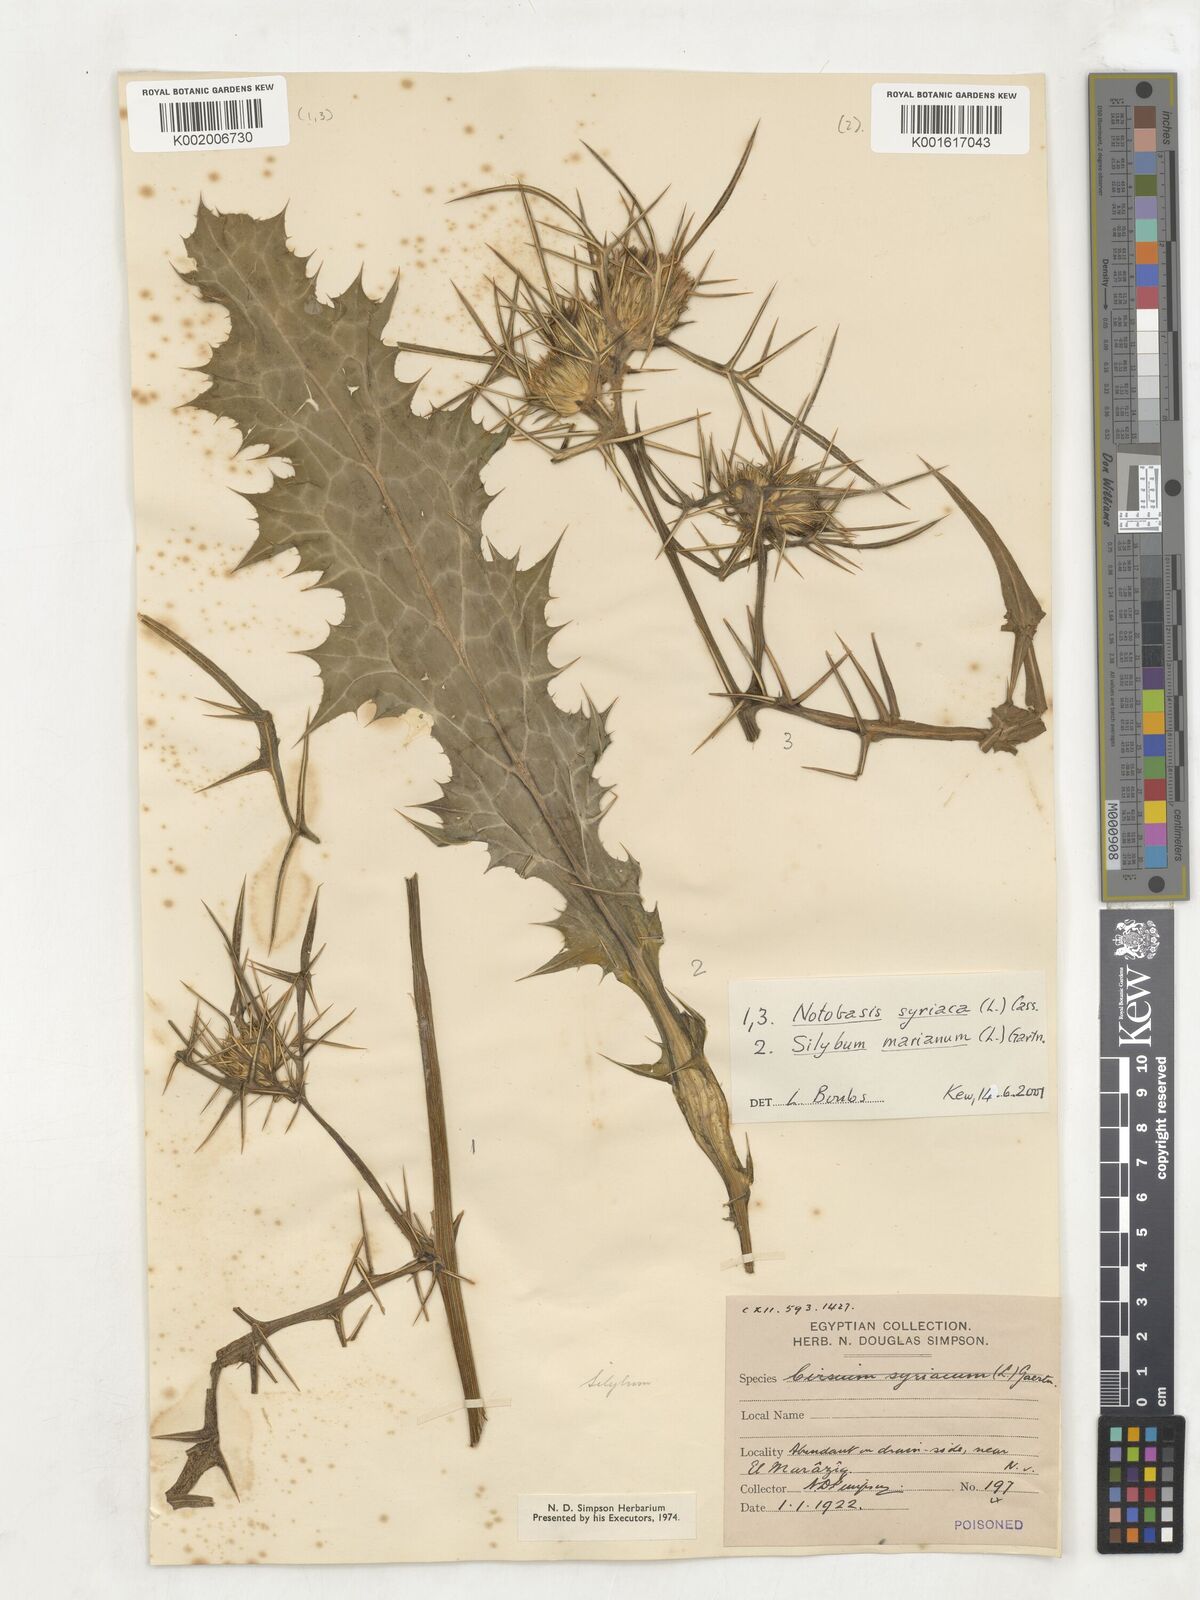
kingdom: Plantae
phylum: Tracheophyta
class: Magnoliopsida
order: Asterales
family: Asteraceae
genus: Silybum
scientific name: Silybum marianum
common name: Milk thistle
